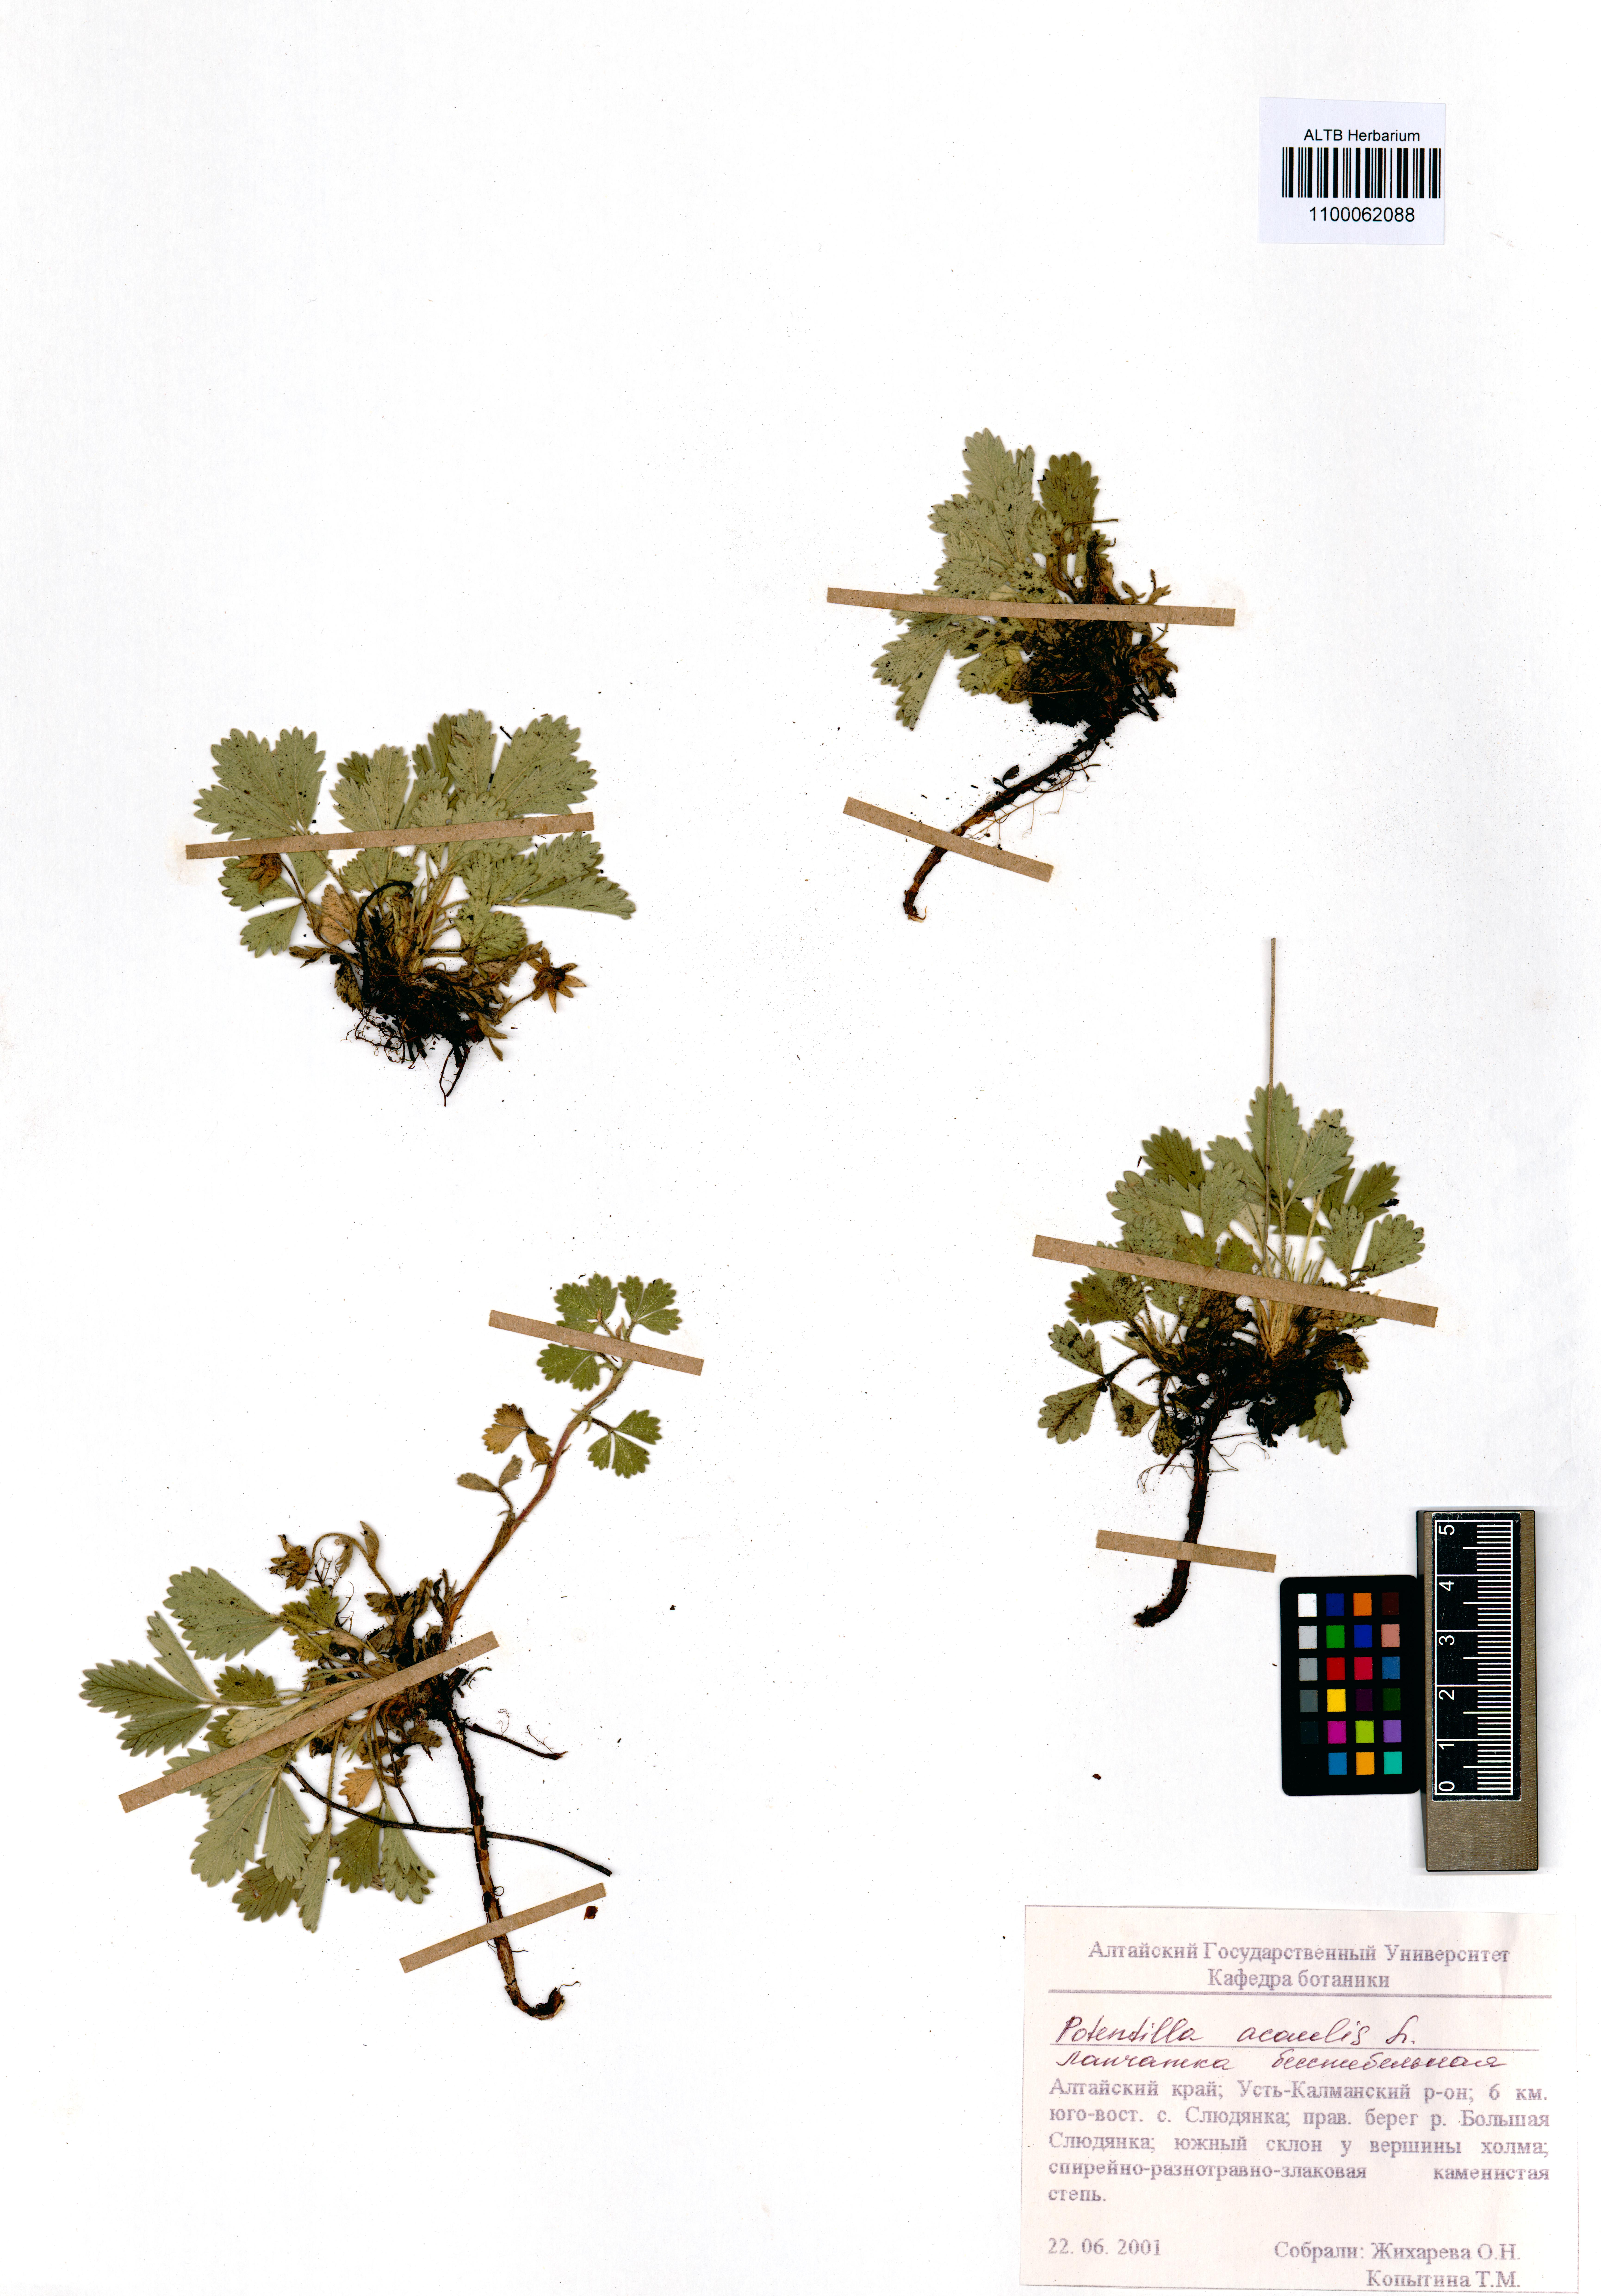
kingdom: Plantae
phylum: Tracheophyta
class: Magnoliopsida
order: Rosales
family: Rosaceae
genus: Potentilla
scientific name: Potentilla acaulis
